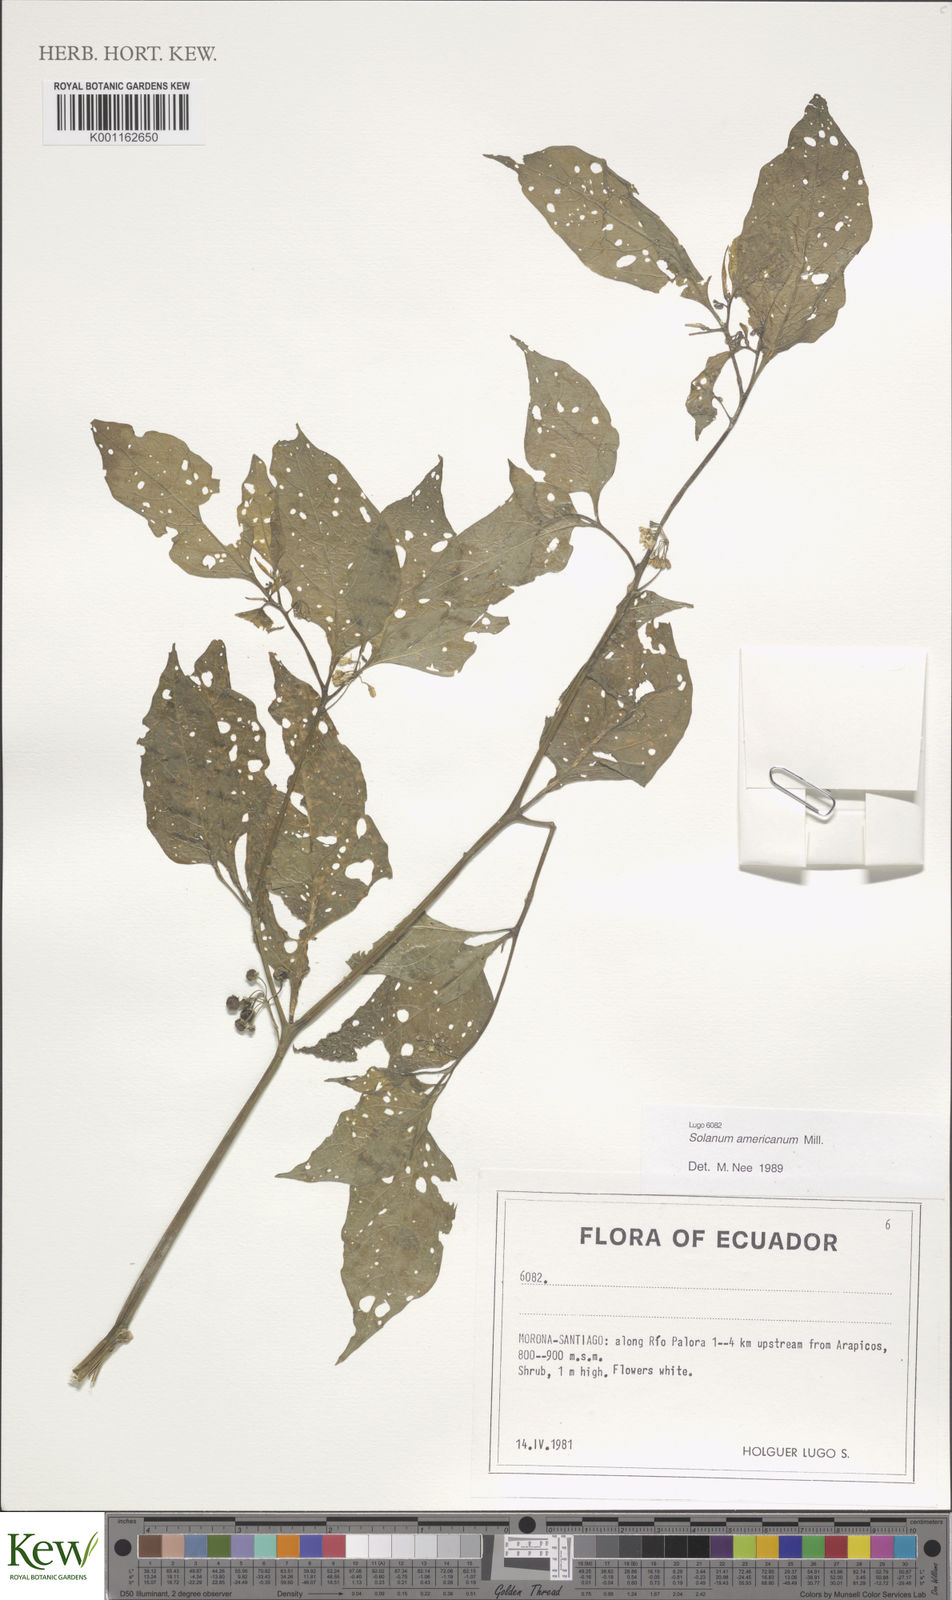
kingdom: Plantae
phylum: Tracheophyta
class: Magnoliopsida
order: Solanales
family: Solanaceae
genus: Solanum
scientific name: Solanum americanum
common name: American black nightshade
